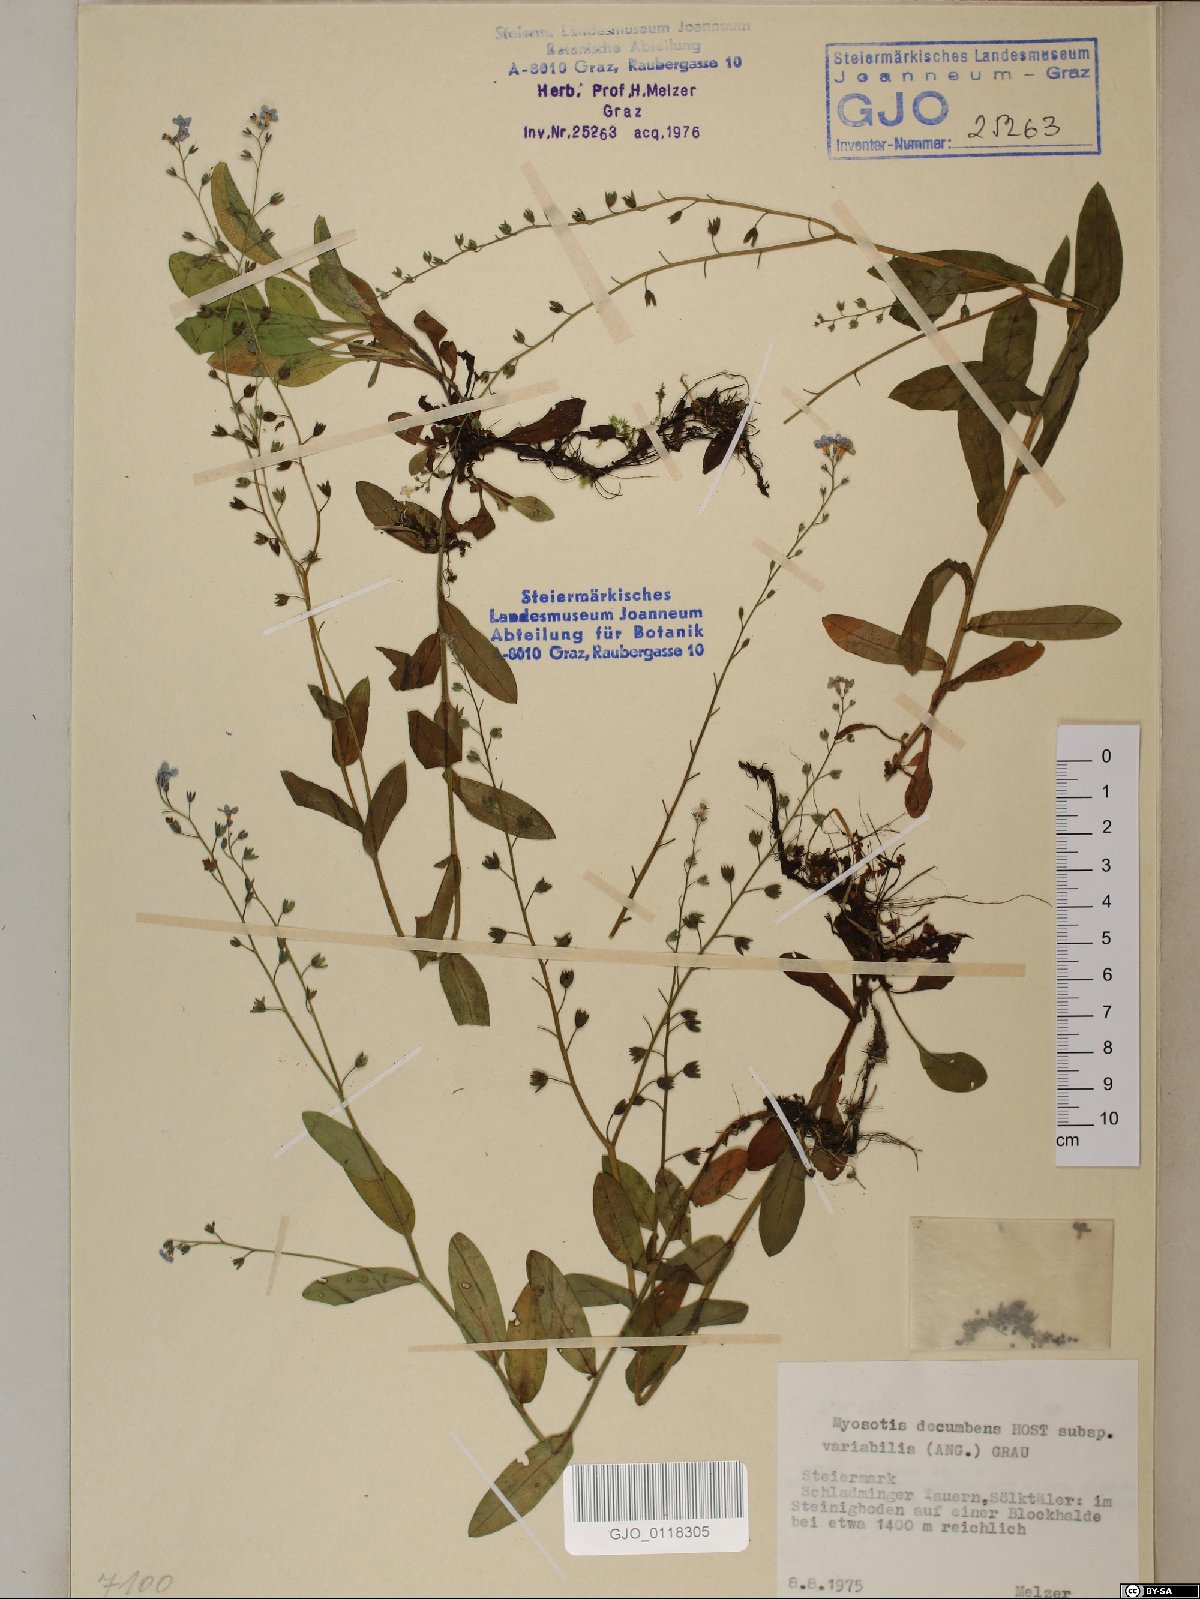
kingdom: Plantae
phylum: Tracheophyta
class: Magnoliopsida
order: Boraginales
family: Boraginaceae
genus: Myosotis
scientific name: Myosotis decumbens
